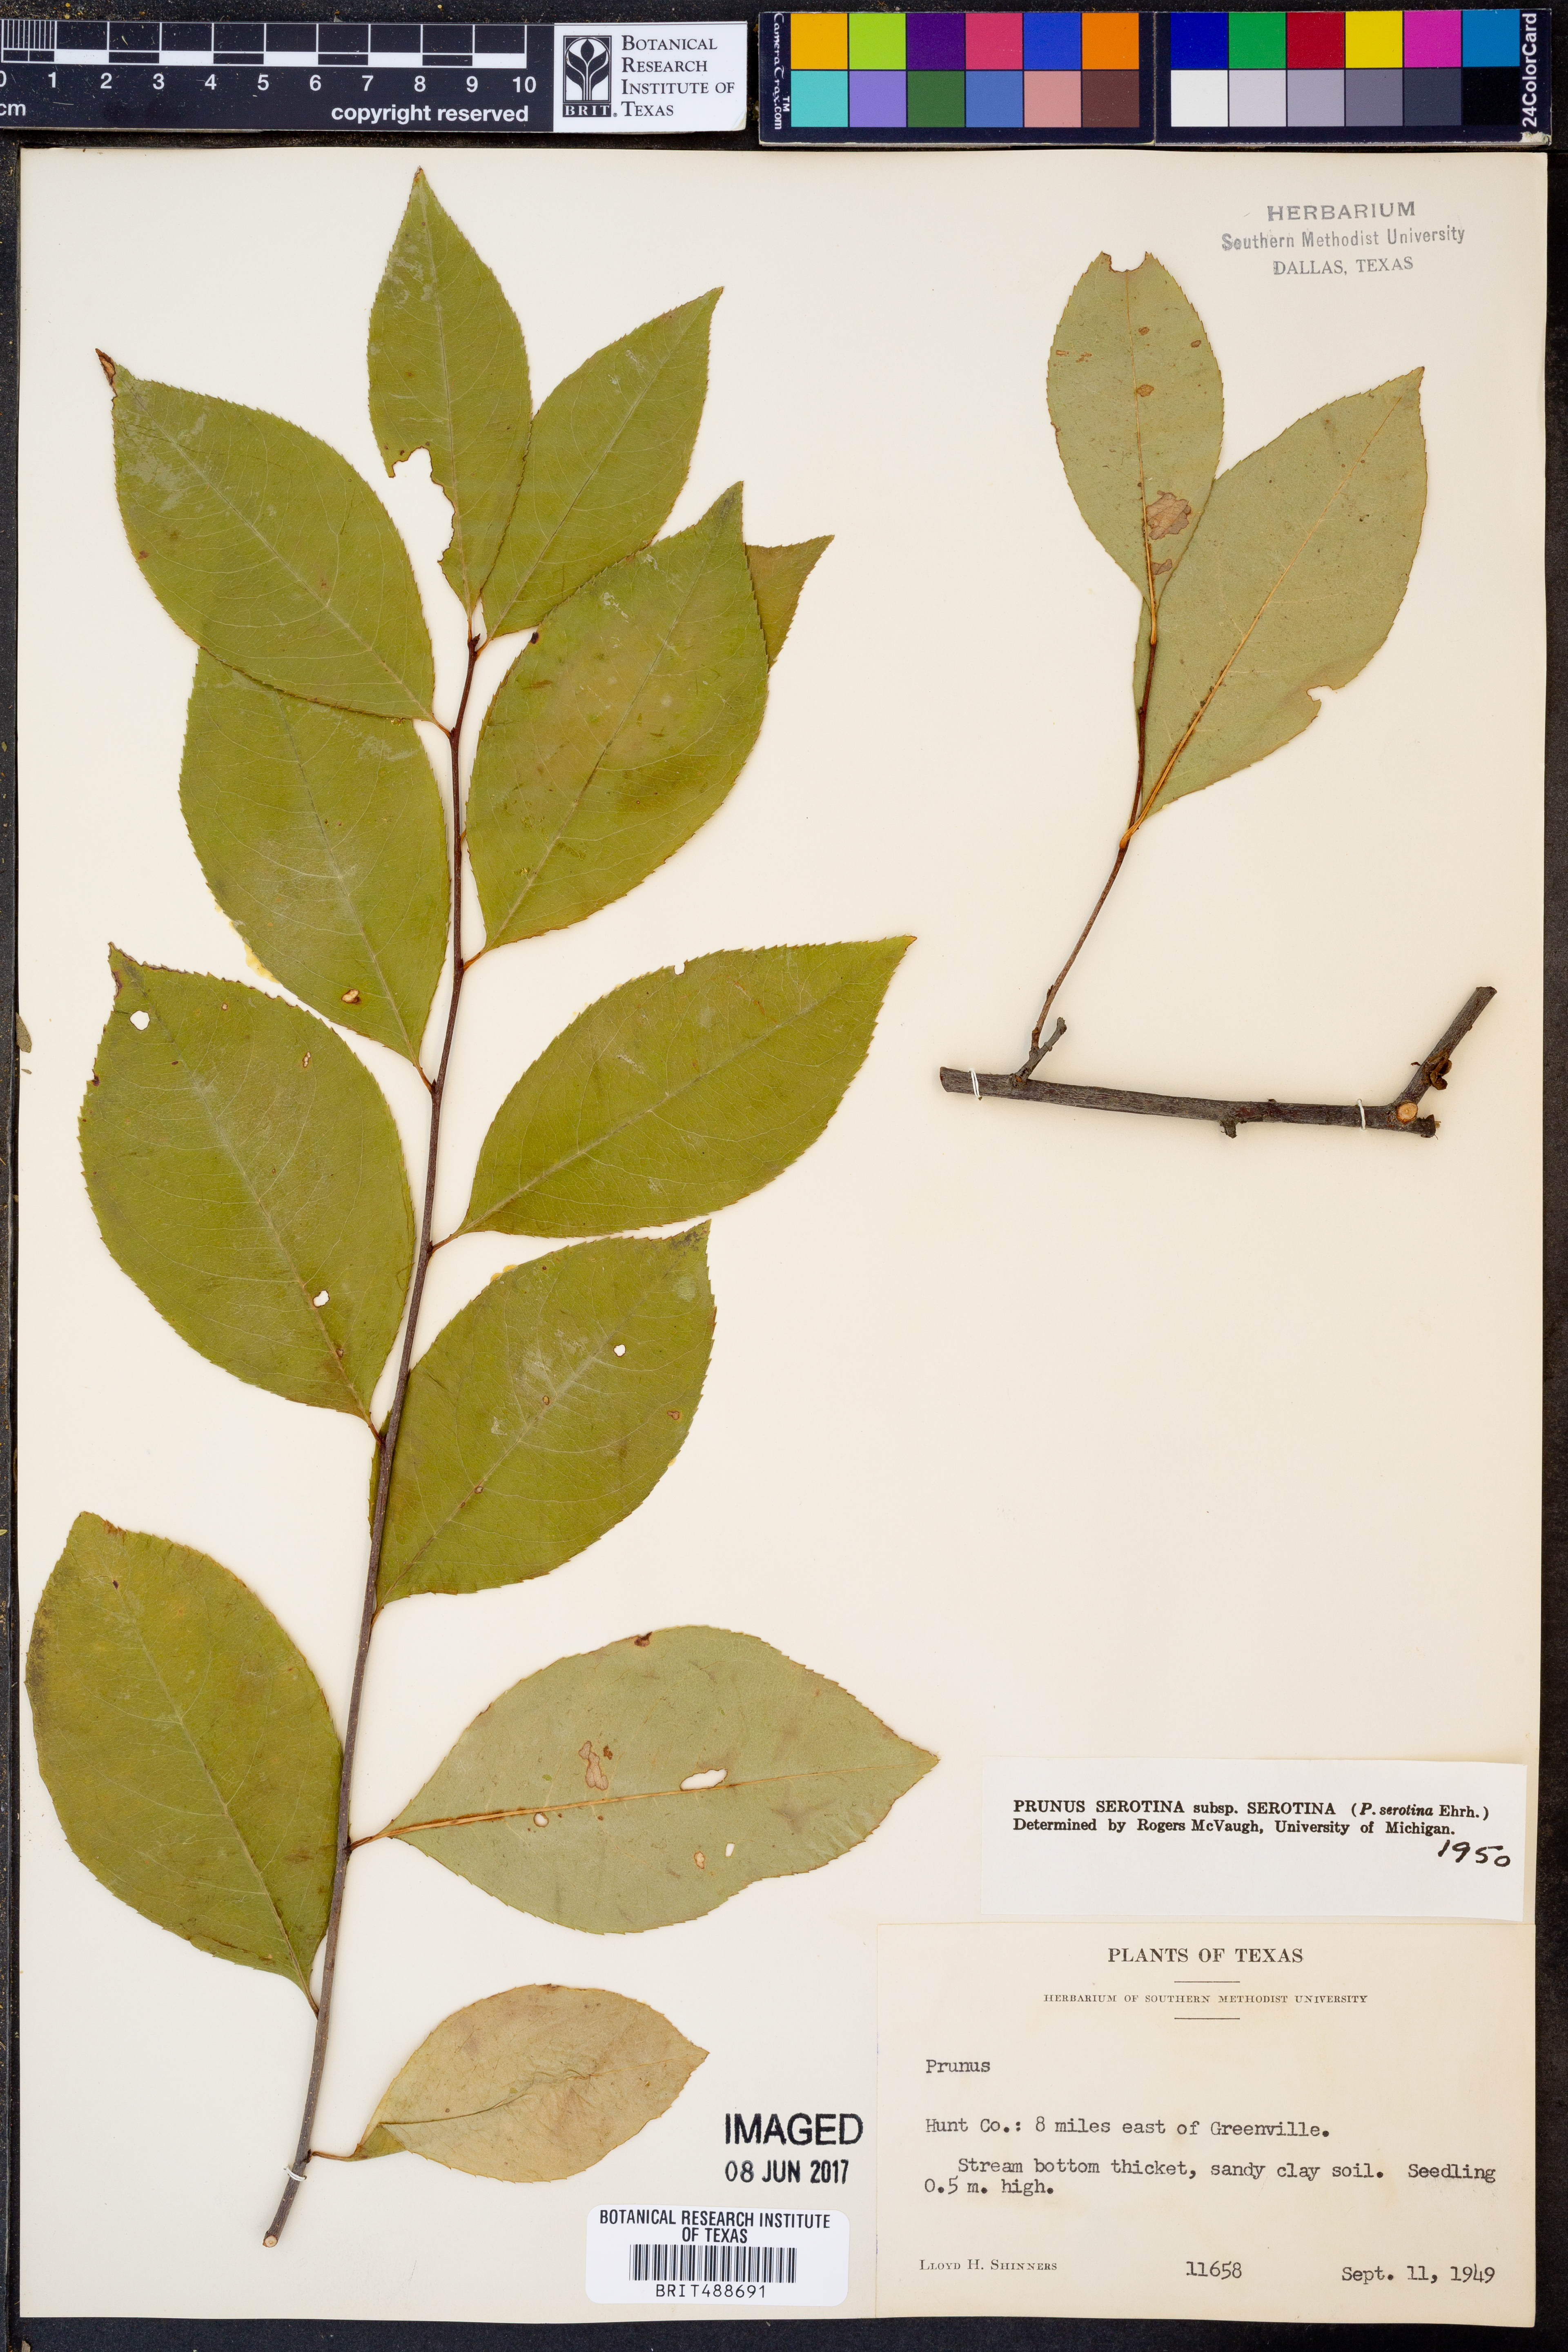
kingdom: Plantae
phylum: Tracheophyta
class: Magnoliopsida
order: Rosales
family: Rosaceae
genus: Prunus
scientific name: Prunus serotina
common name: Black cherry
